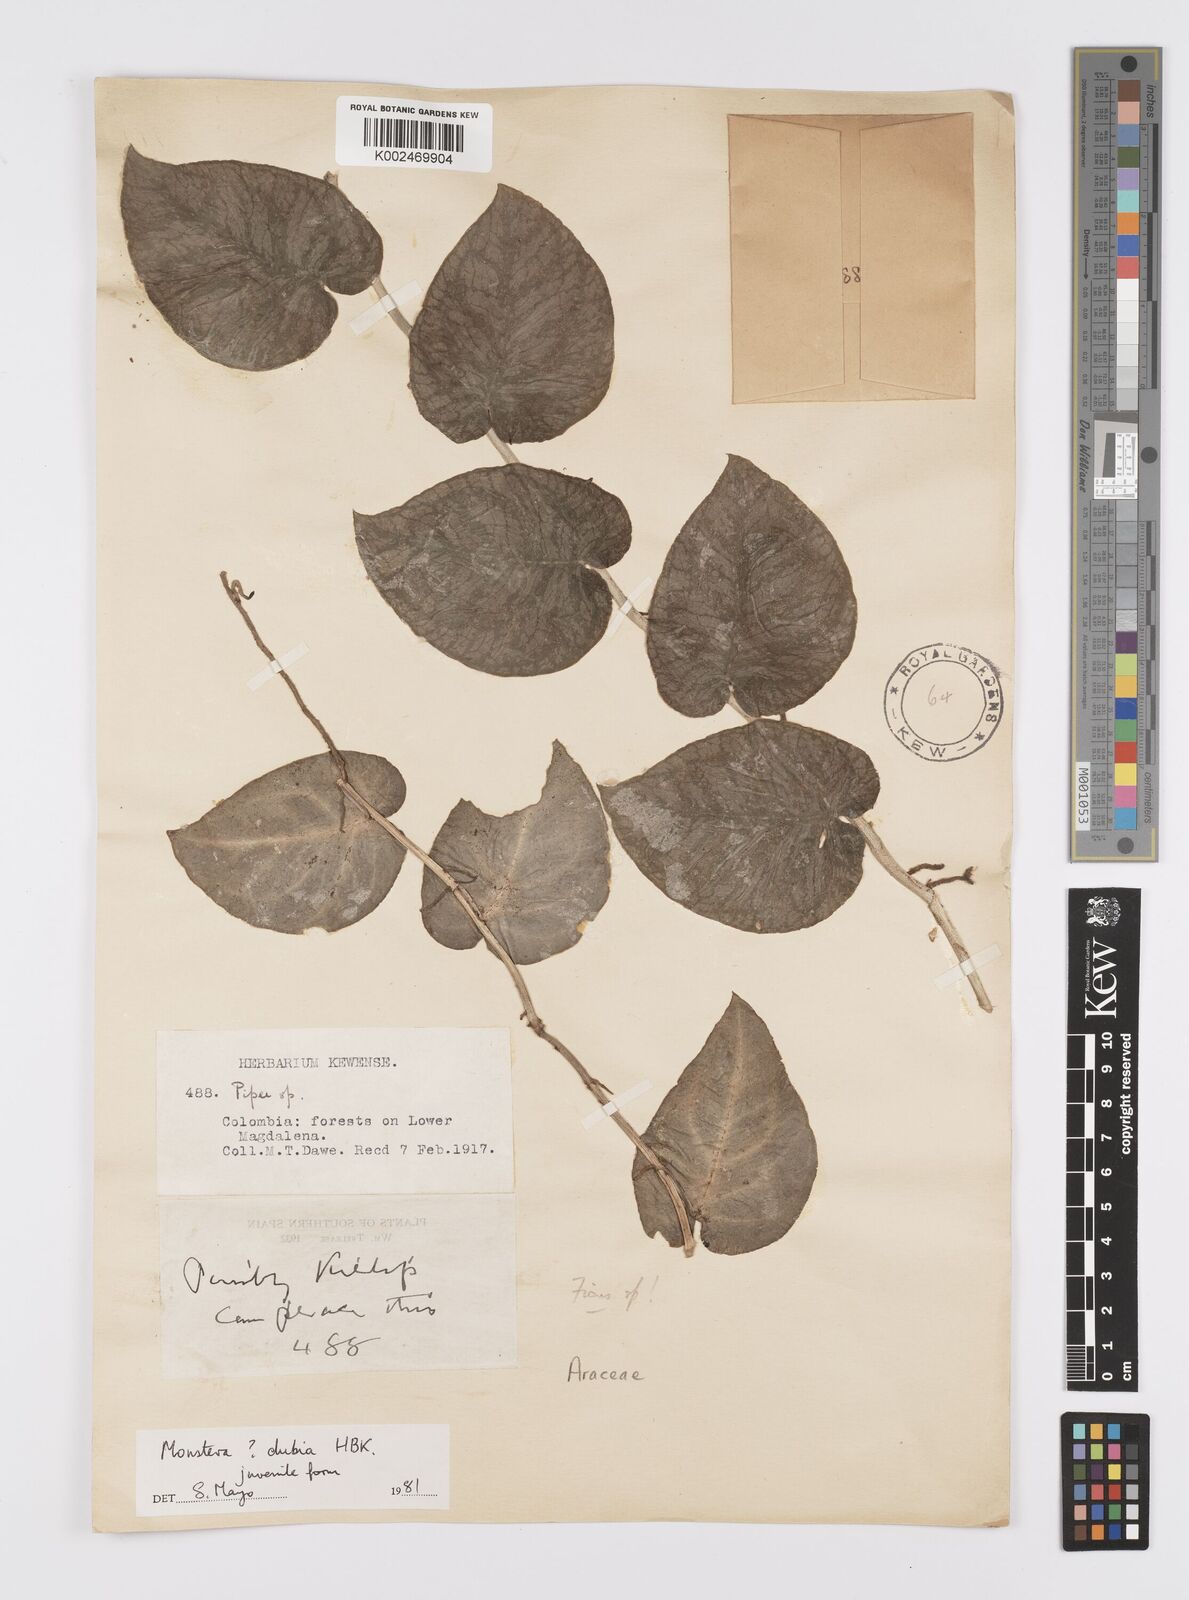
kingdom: Plantae
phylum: Tracheophyta
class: Liliopsida
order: Alismatales
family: Araceae
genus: Monstera
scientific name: Monstera dubia
